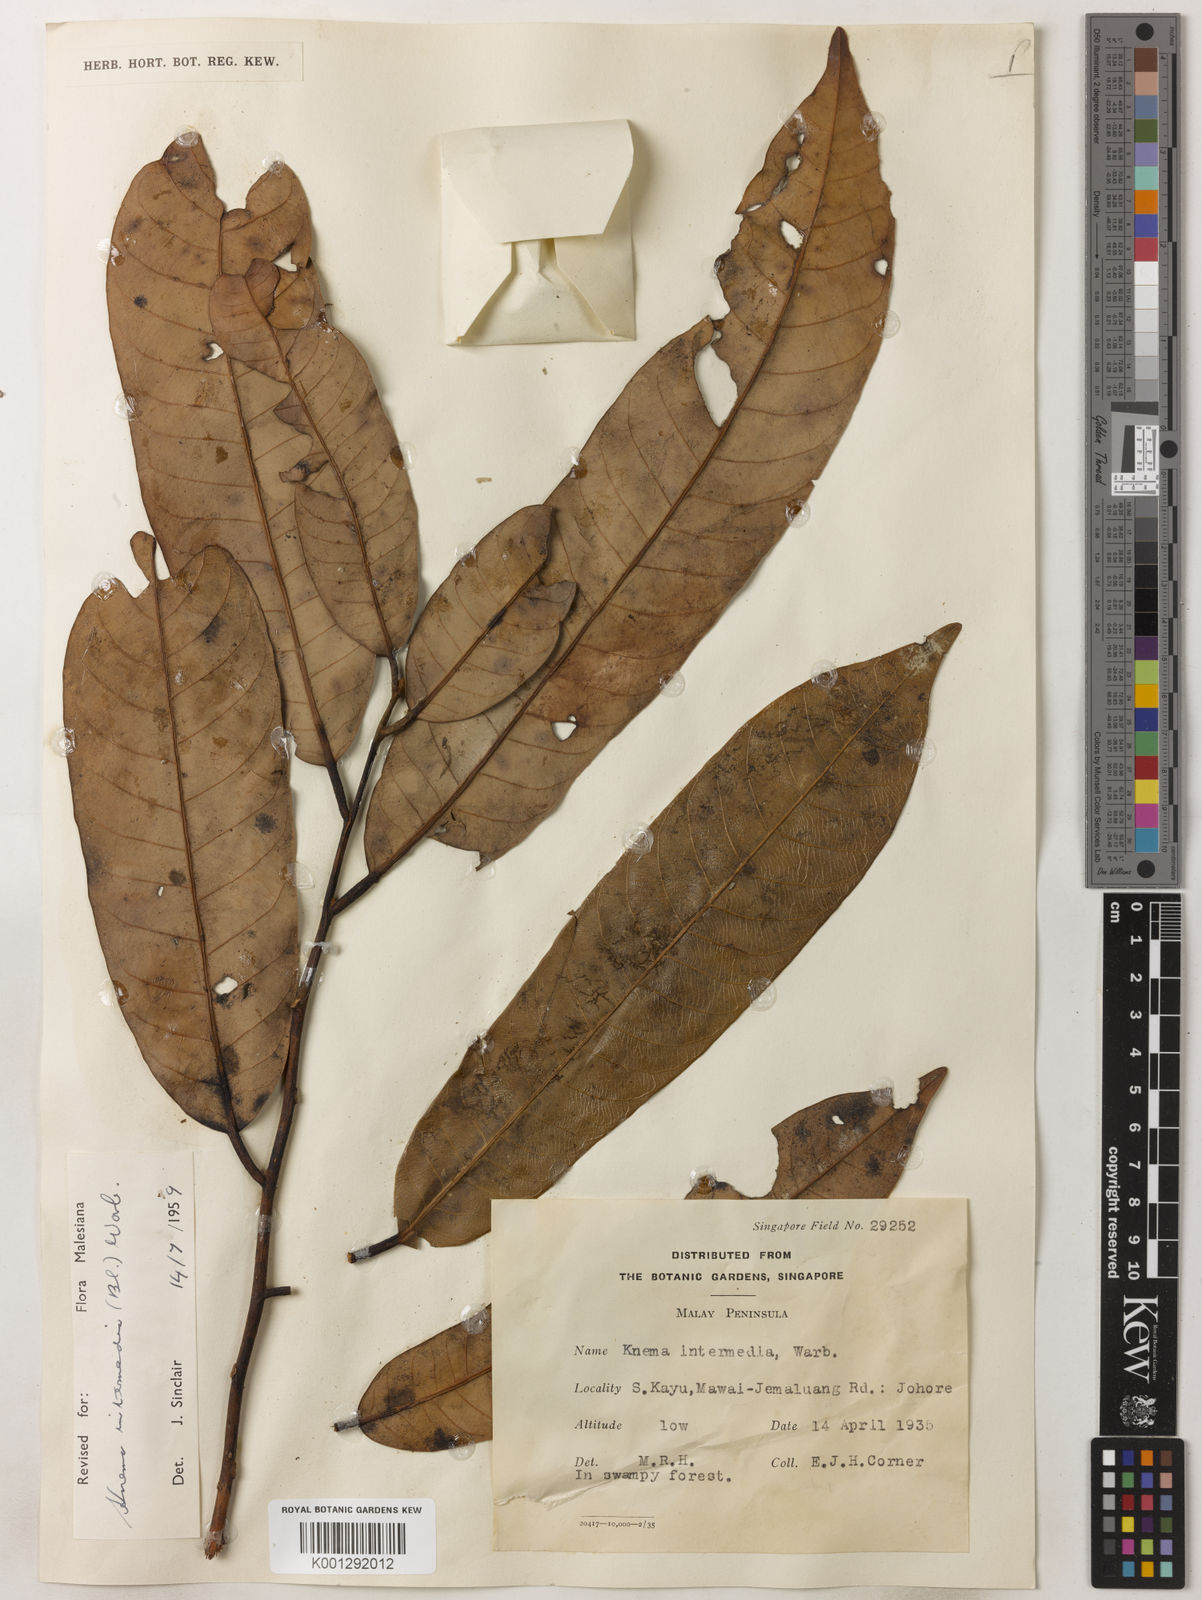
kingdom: Plantae
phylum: Tracheophyta
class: Magnoliopsida
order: Magnoliales
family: Myristicaceae
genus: Knema
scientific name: Knema intermedia
